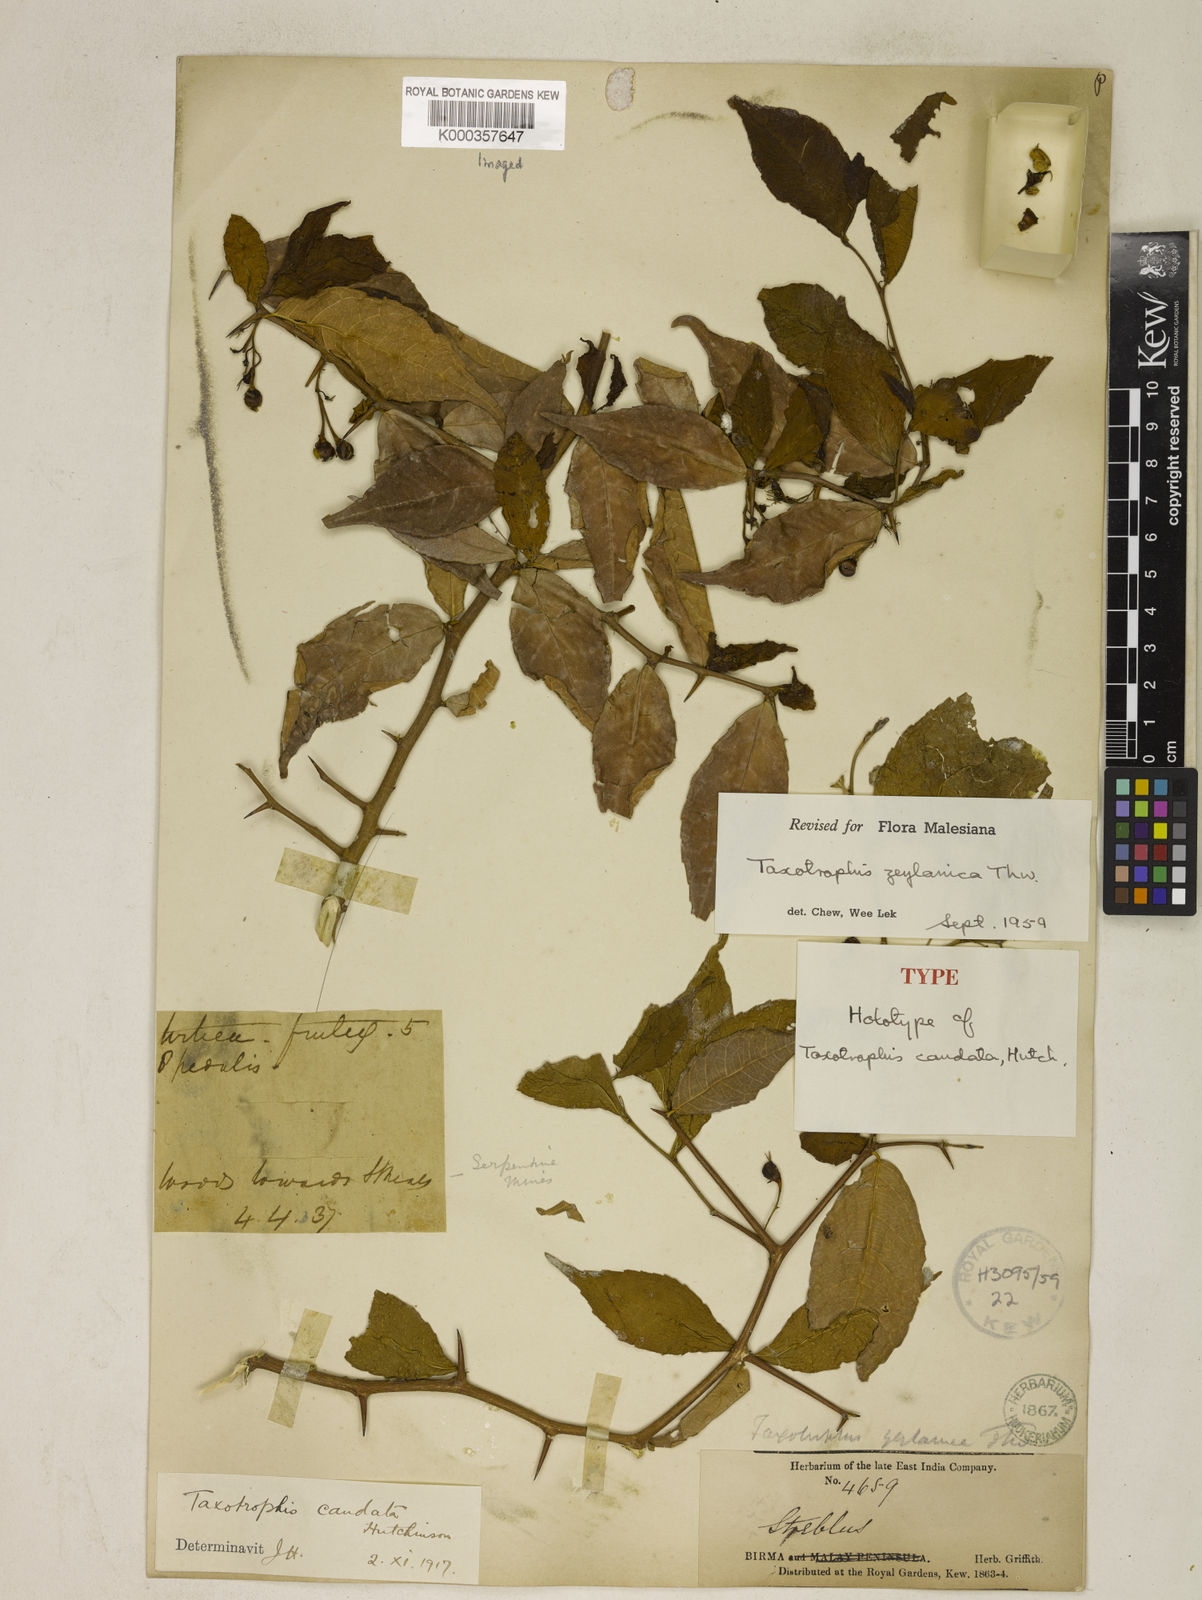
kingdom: Plantae
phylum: Tracheophyta
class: Magnoliopsida
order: Rosales
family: Moraceae
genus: Taxotrophis
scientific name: Taxotrophis zeylanica
